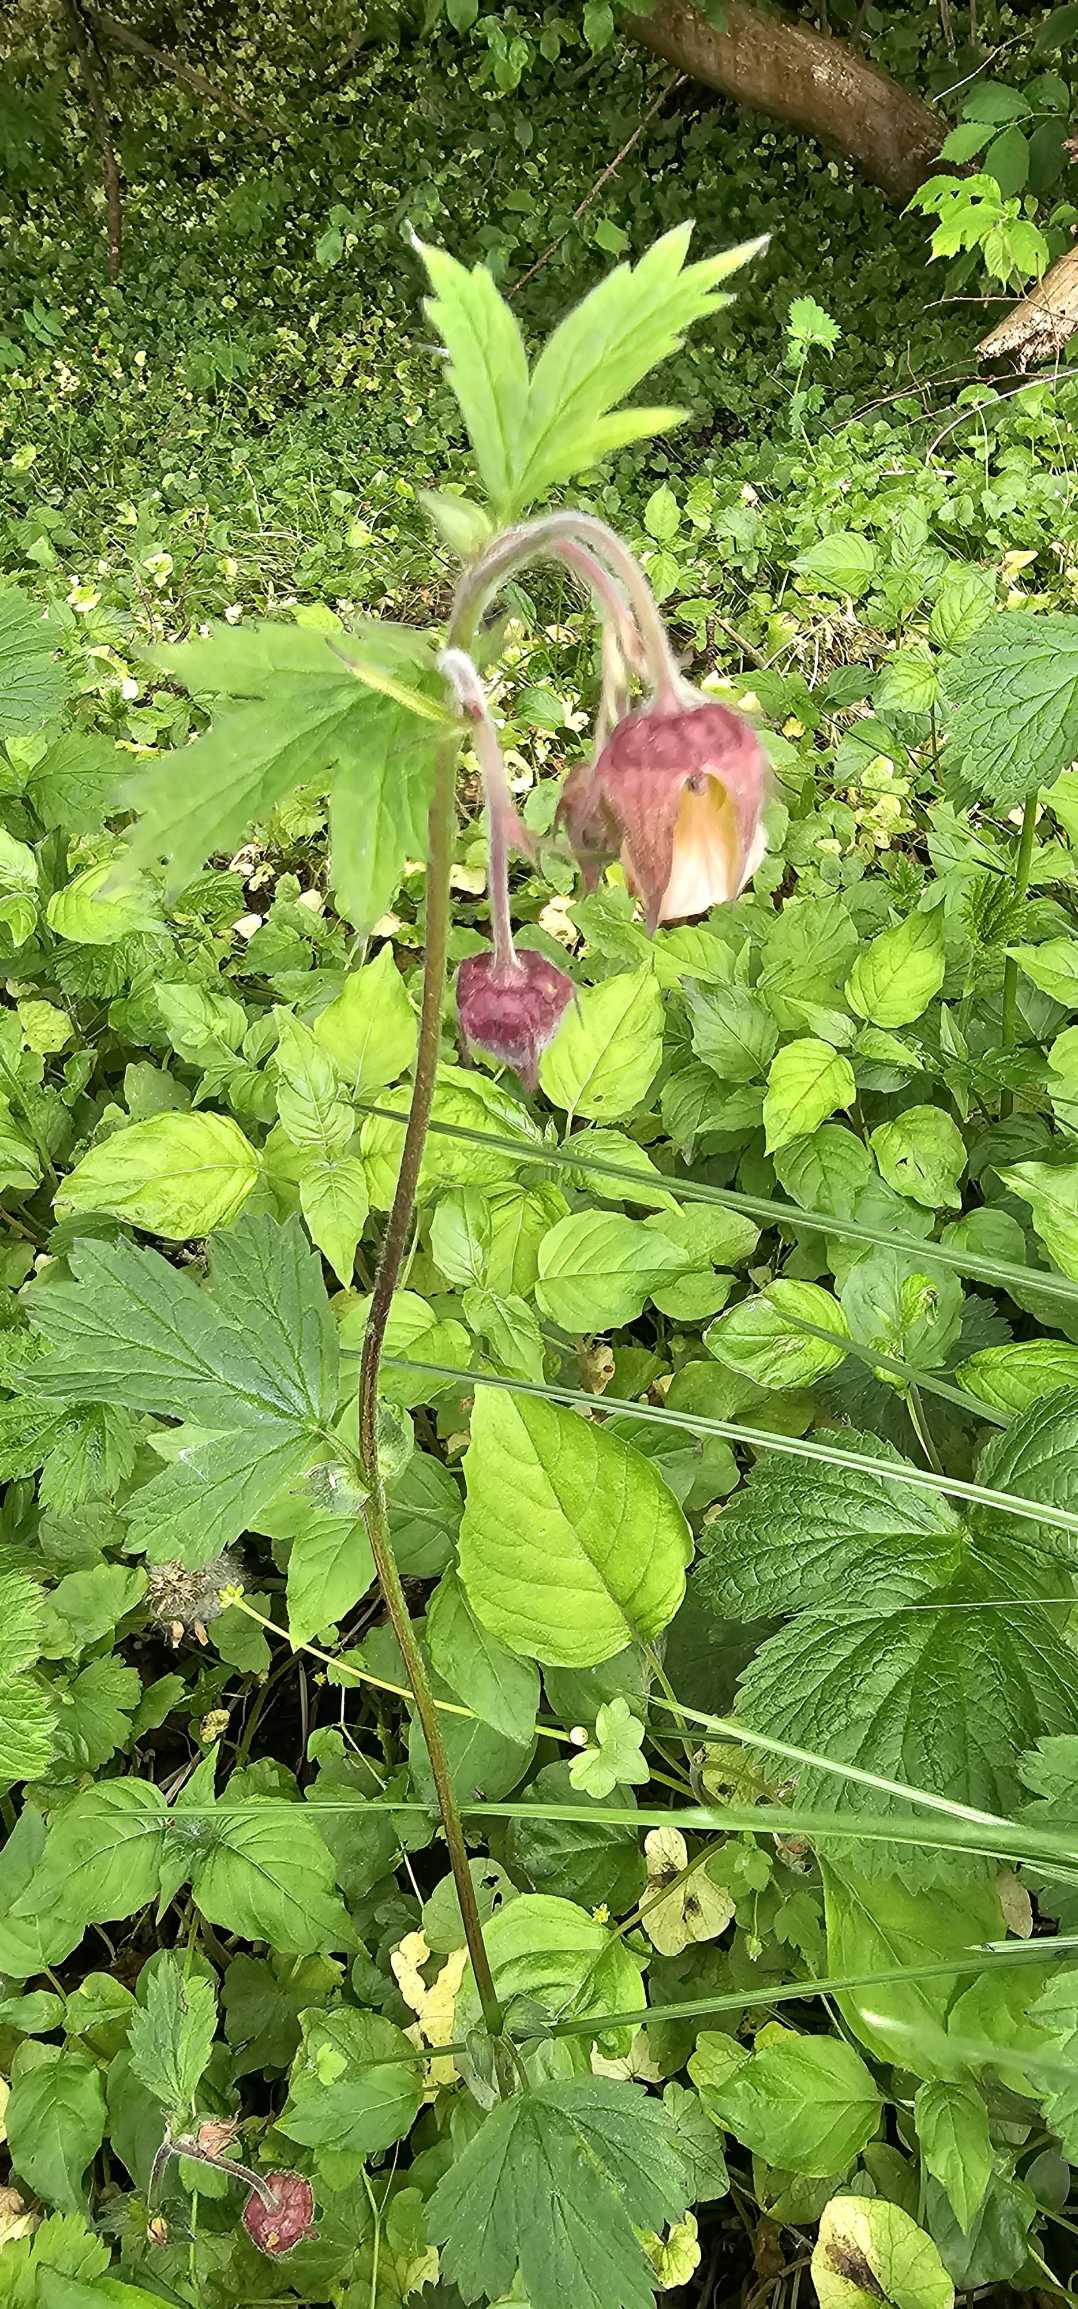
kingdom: Plantae
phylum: Tracheophyta
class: Magnoliopsida
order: Rosales
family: Rosaceae
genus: Geum
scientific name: Geum rivale
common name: Eng-nellikerod
